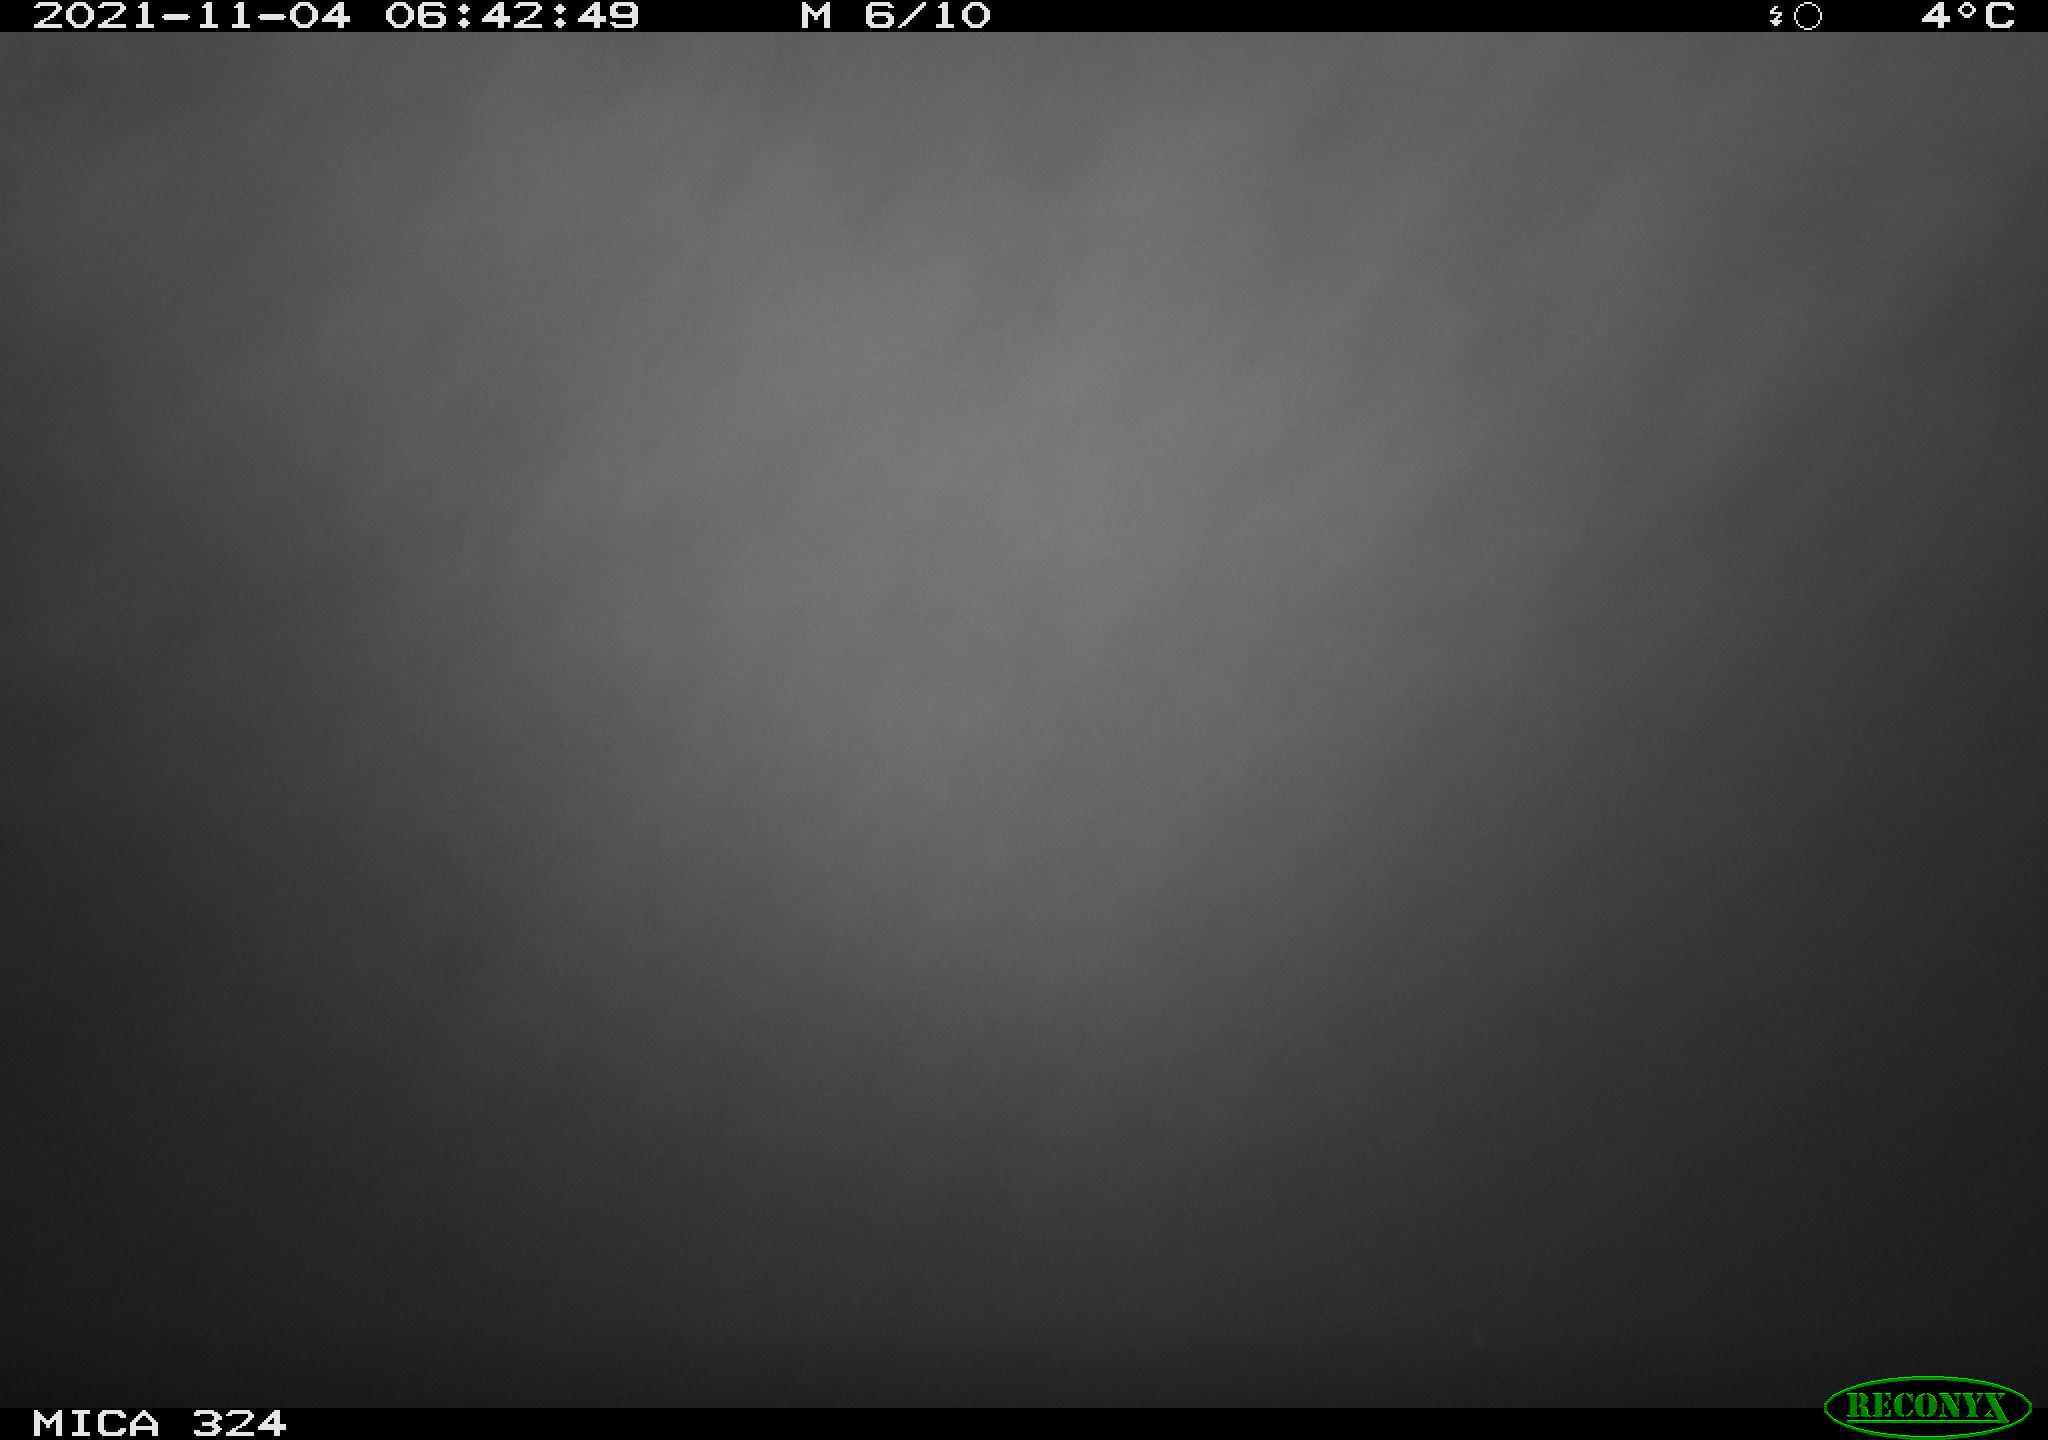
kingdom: Animalia
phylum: Chordata
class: Mammalia
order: Rodentia
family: Cricetidae
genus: Ondatra
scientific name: Ondatra zibethicus
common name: Muskrat
